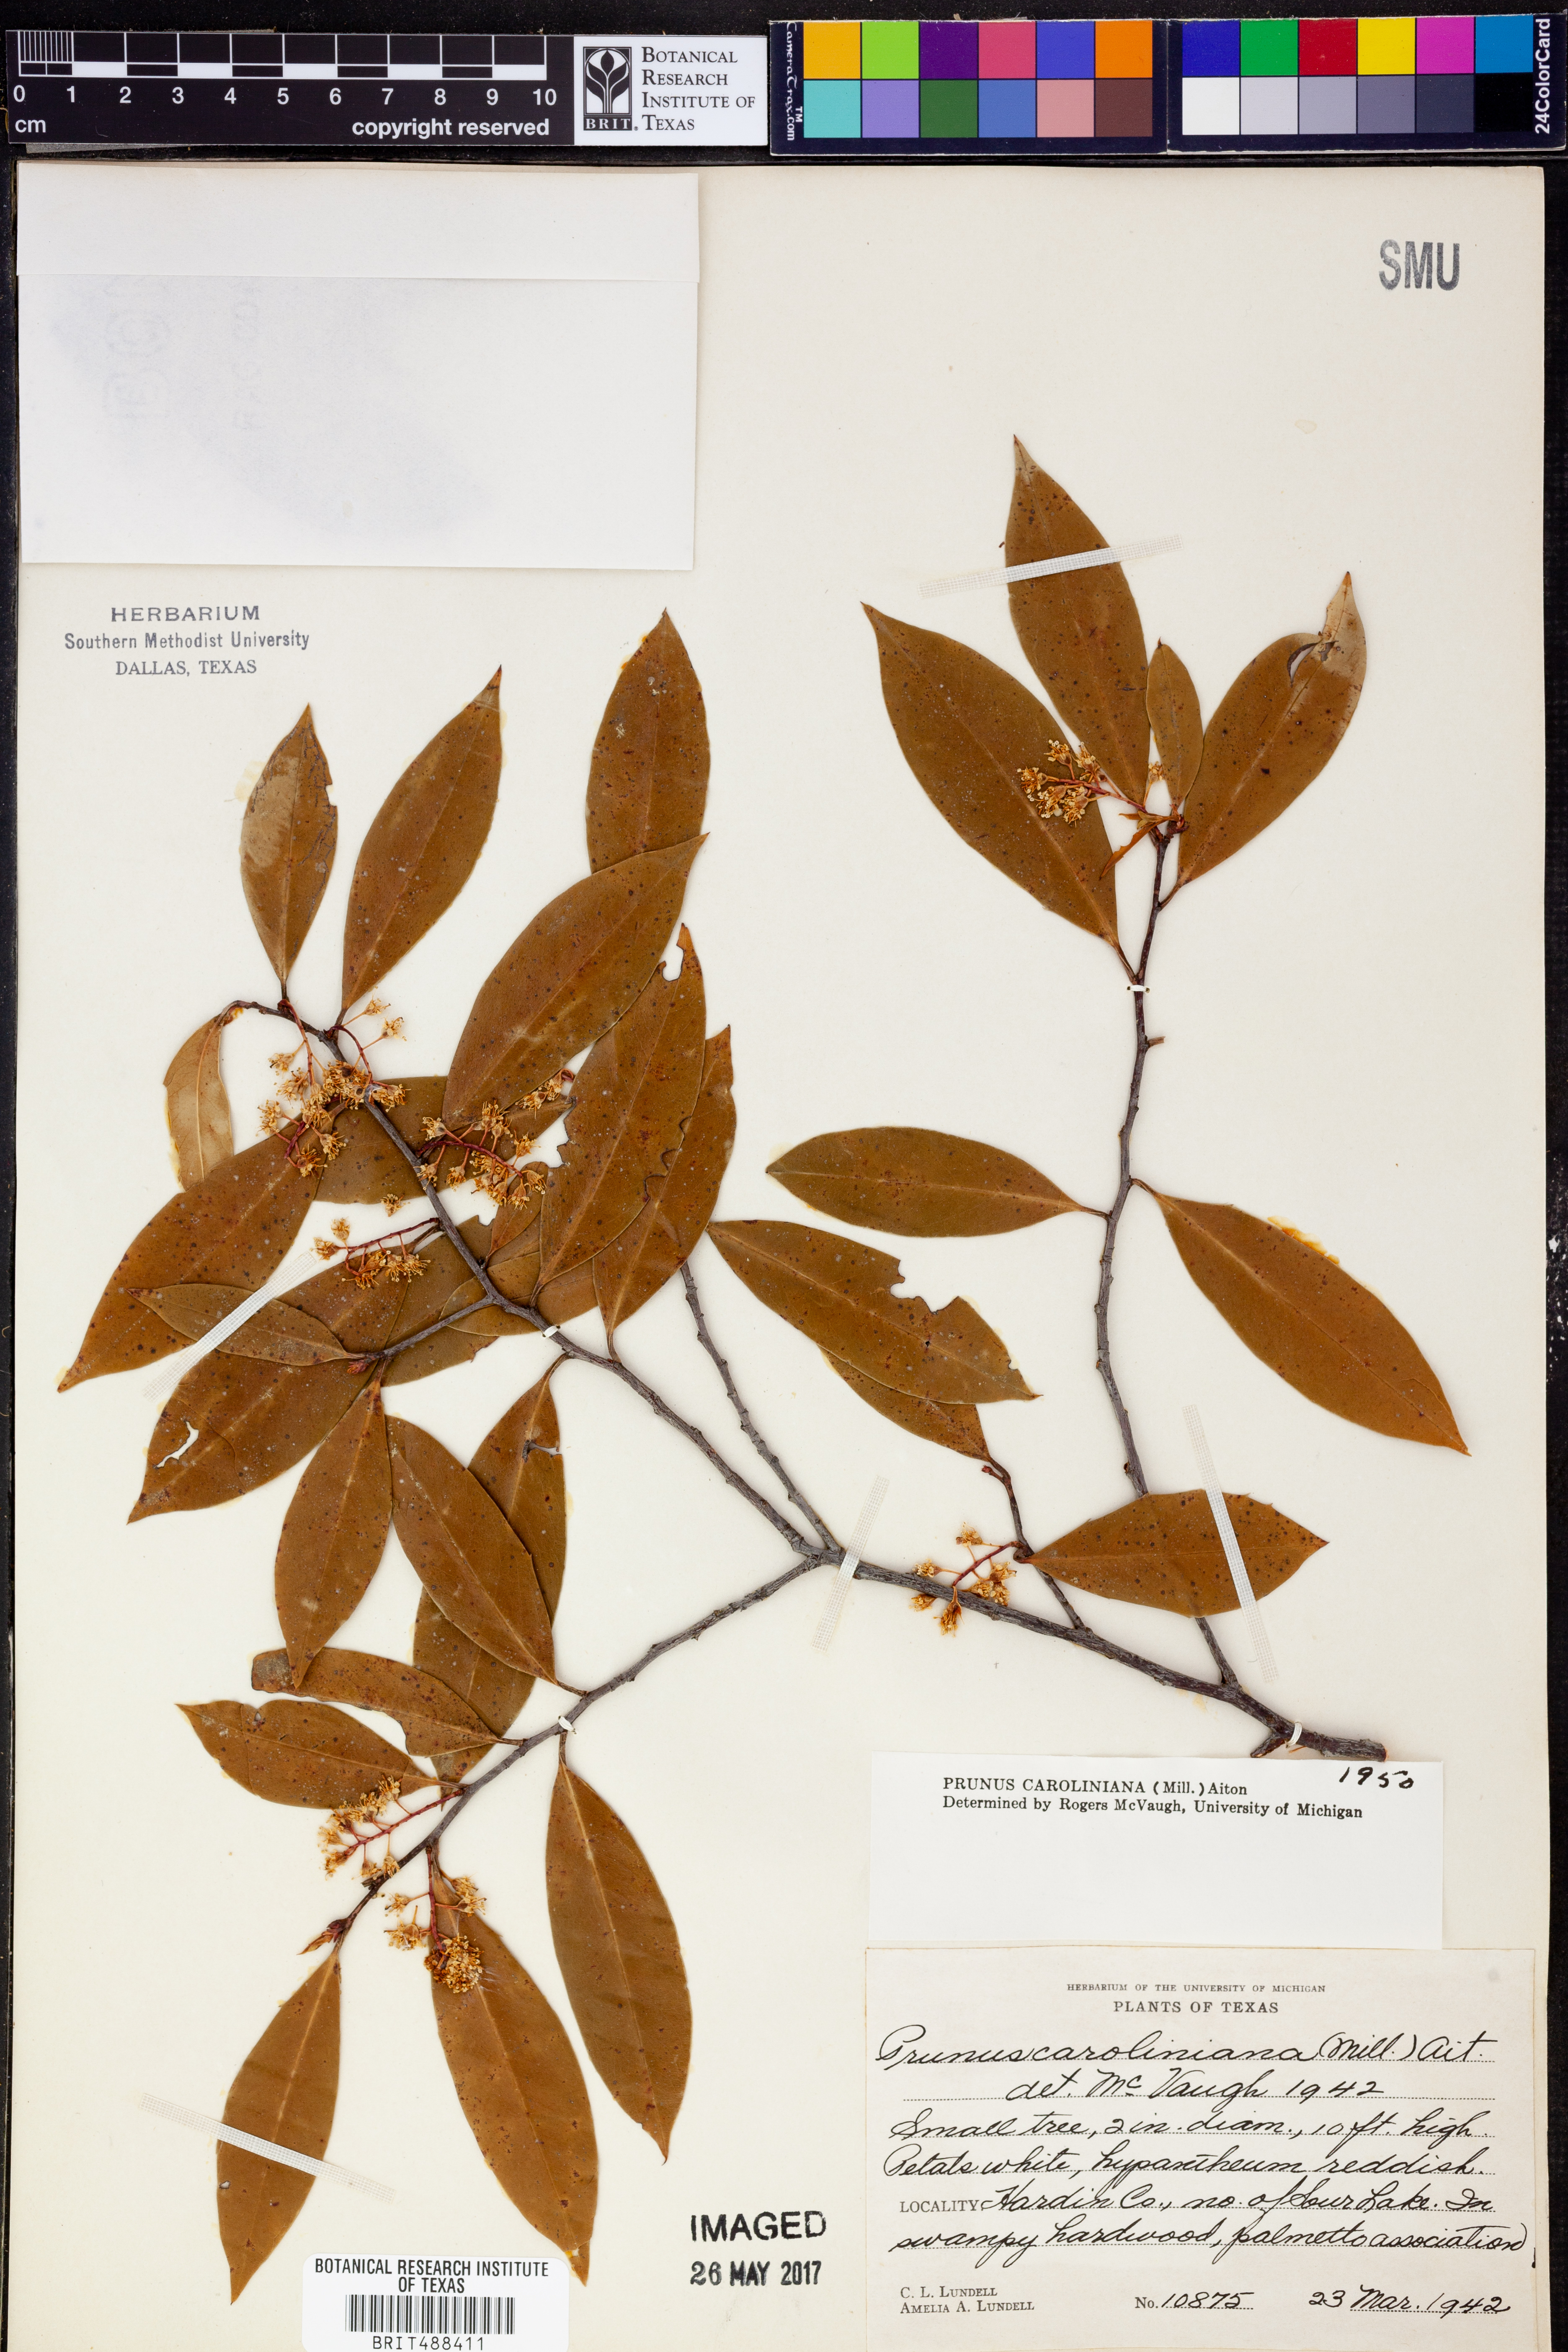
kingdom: Plantae
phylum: Tracheophyta
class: Magnoliopsida
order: Rosales
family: Rosaceae
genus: Prunus
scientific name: Prunus caroliniana
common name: Carolina laurel cherry
